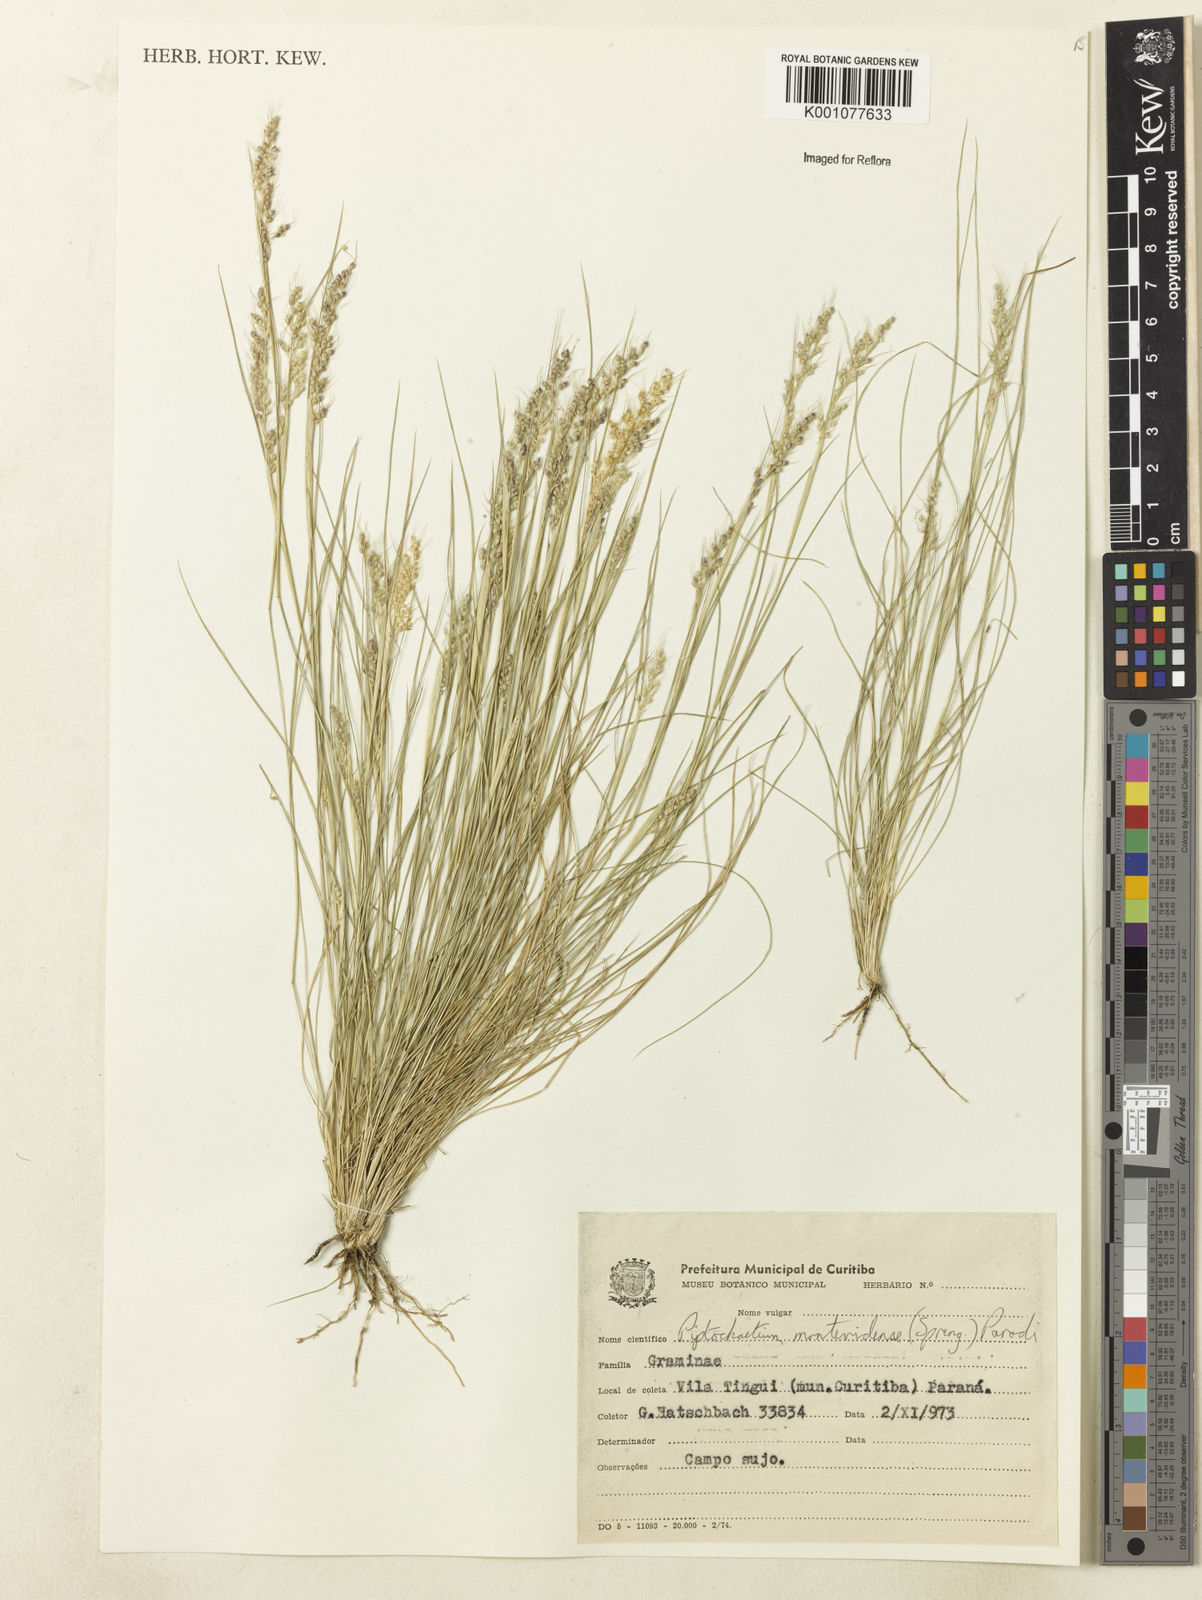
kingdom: Plantae
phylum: Tracheophyta
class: Liliopsida
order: Poales
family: Poaceae
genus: Piptochaetium
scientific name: Piptochaetium montevidense
